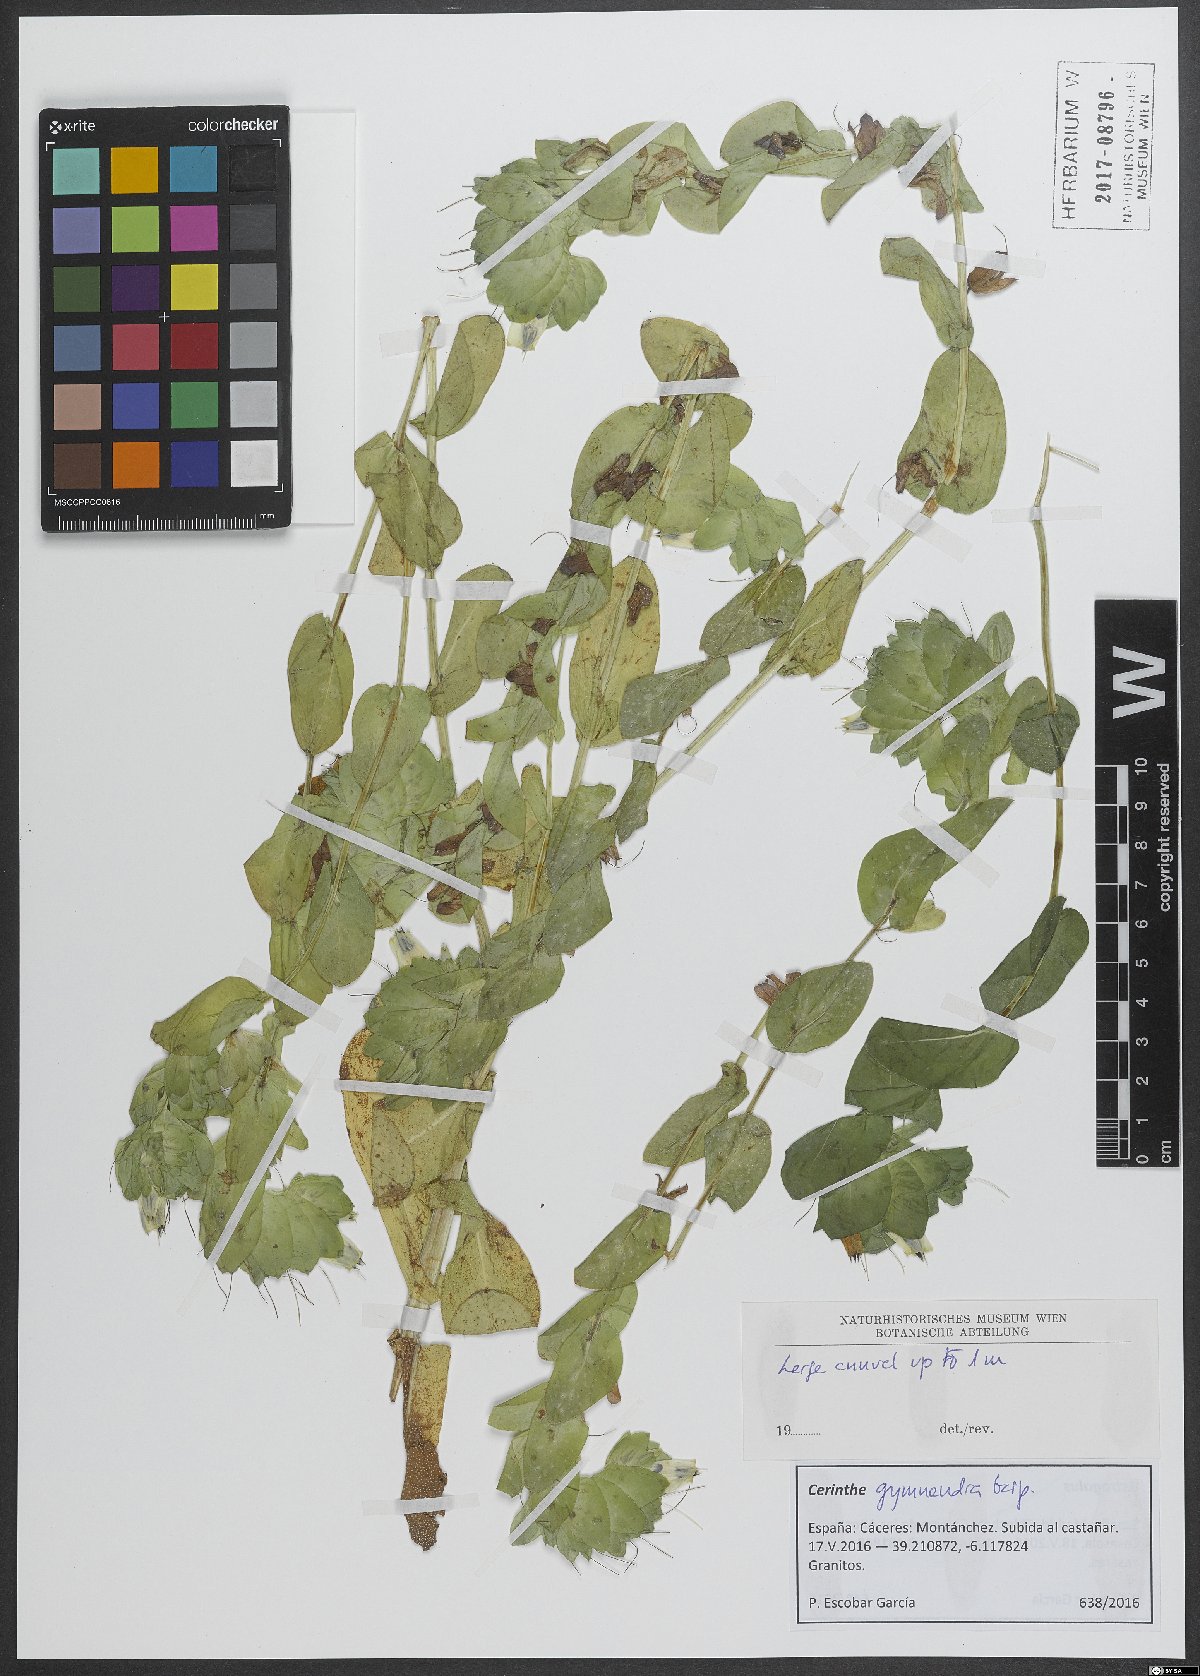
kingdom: Plantae
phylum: Tracheophyta
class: Magnoliopsida
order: Boraginales
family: Boraginaceae
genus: Cerinthe
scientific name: Cerinthe major
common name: Greater honeywort
